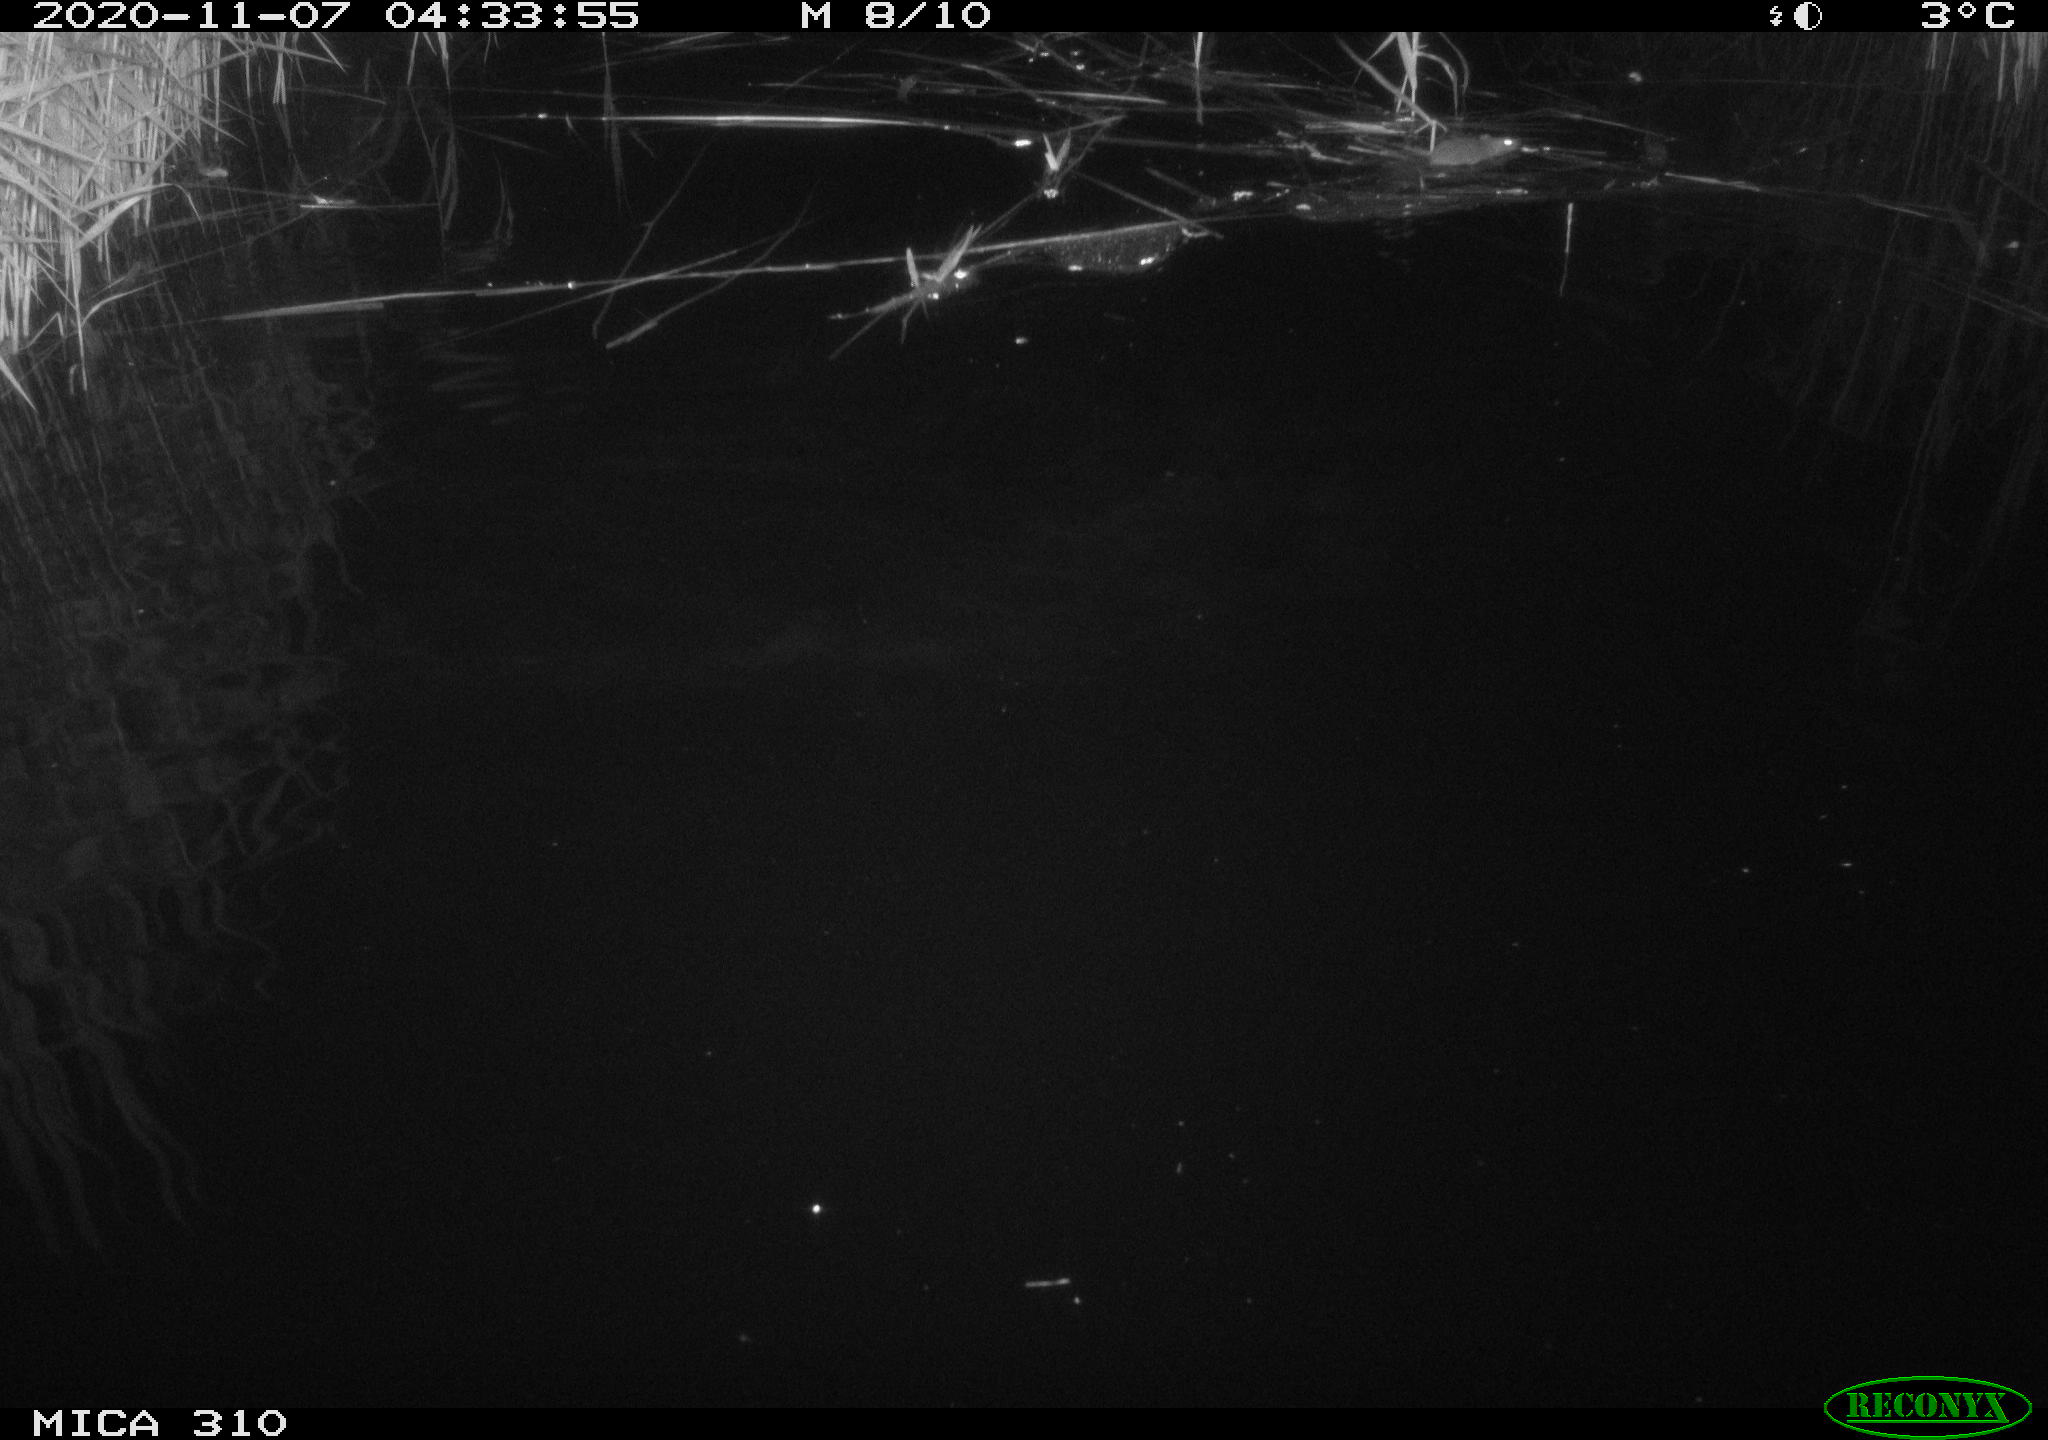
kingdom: Animalia
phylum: Chordata
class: Mammalia
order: Rodentia
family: Muridae
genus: Rattus
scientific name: Rattus norvegicus
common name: Brown rat
